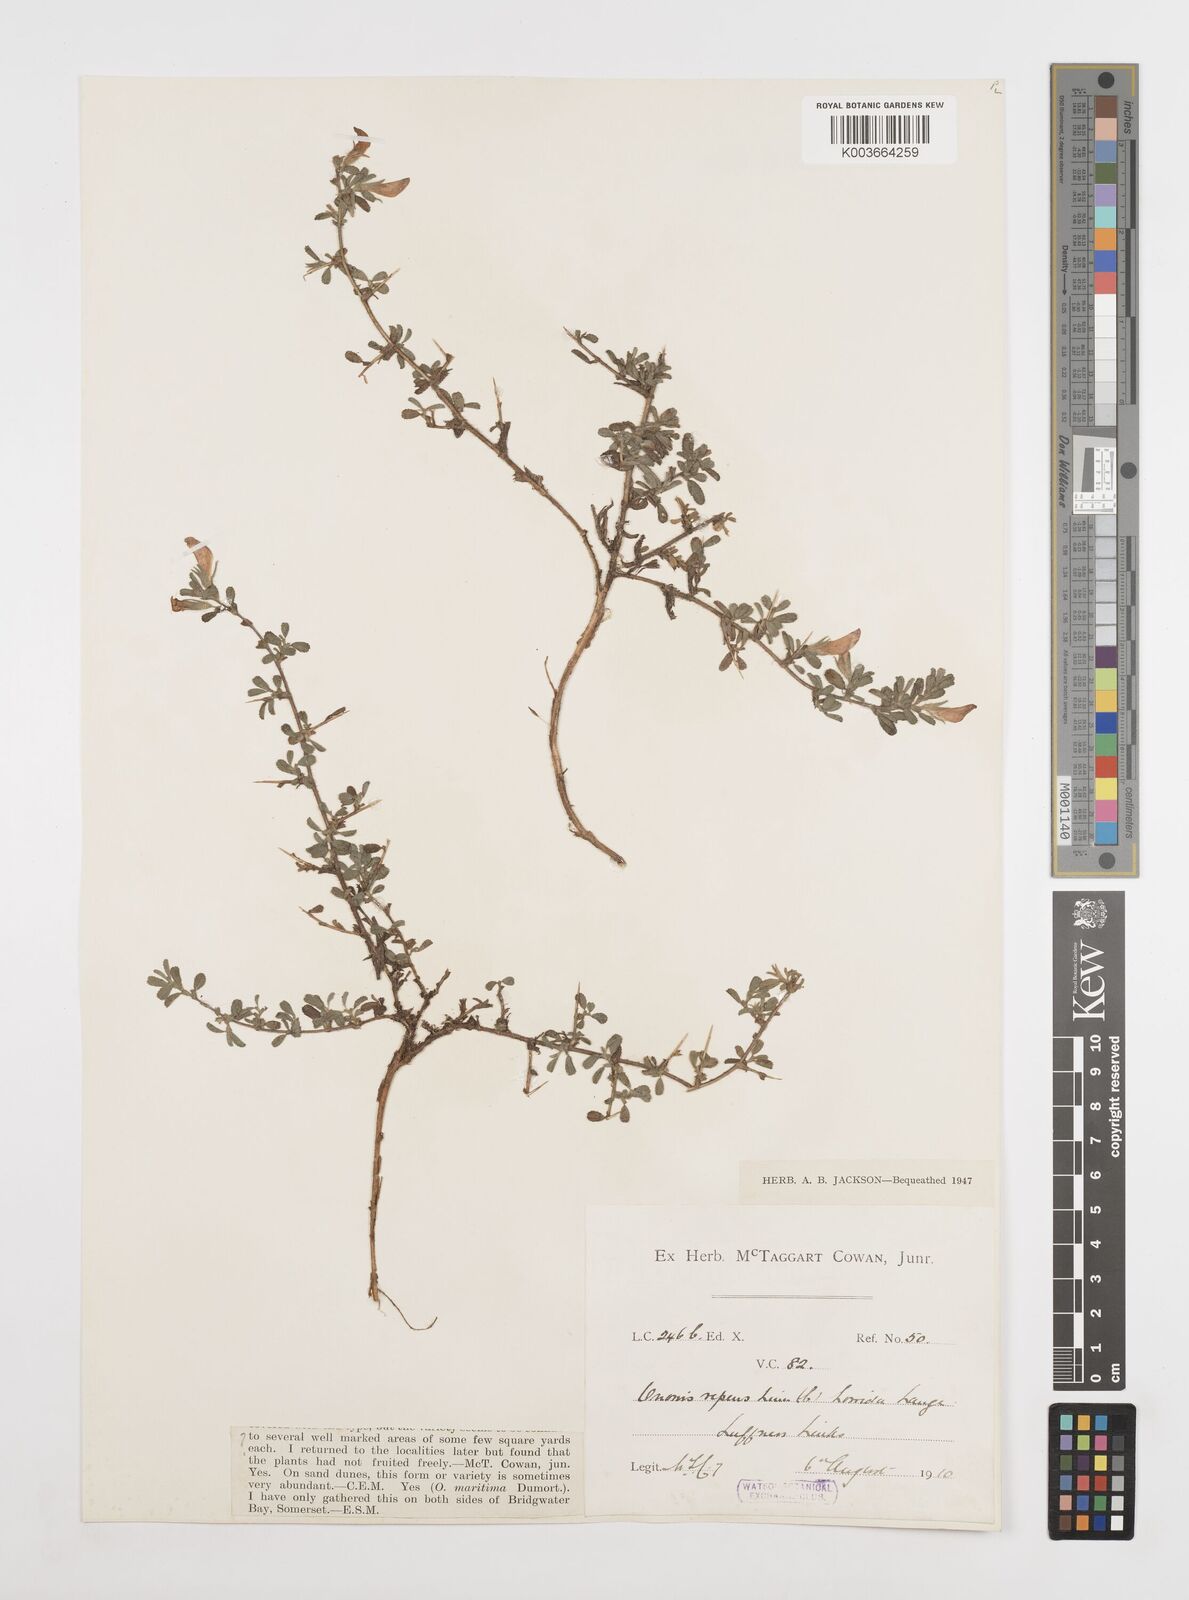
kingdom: Plantae
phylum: Tracheophyta
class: Magnoliopsida
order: Fabales
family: Fabaceae
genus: Ononis
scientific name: Ononis spinosa
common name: Spiny restharrow
